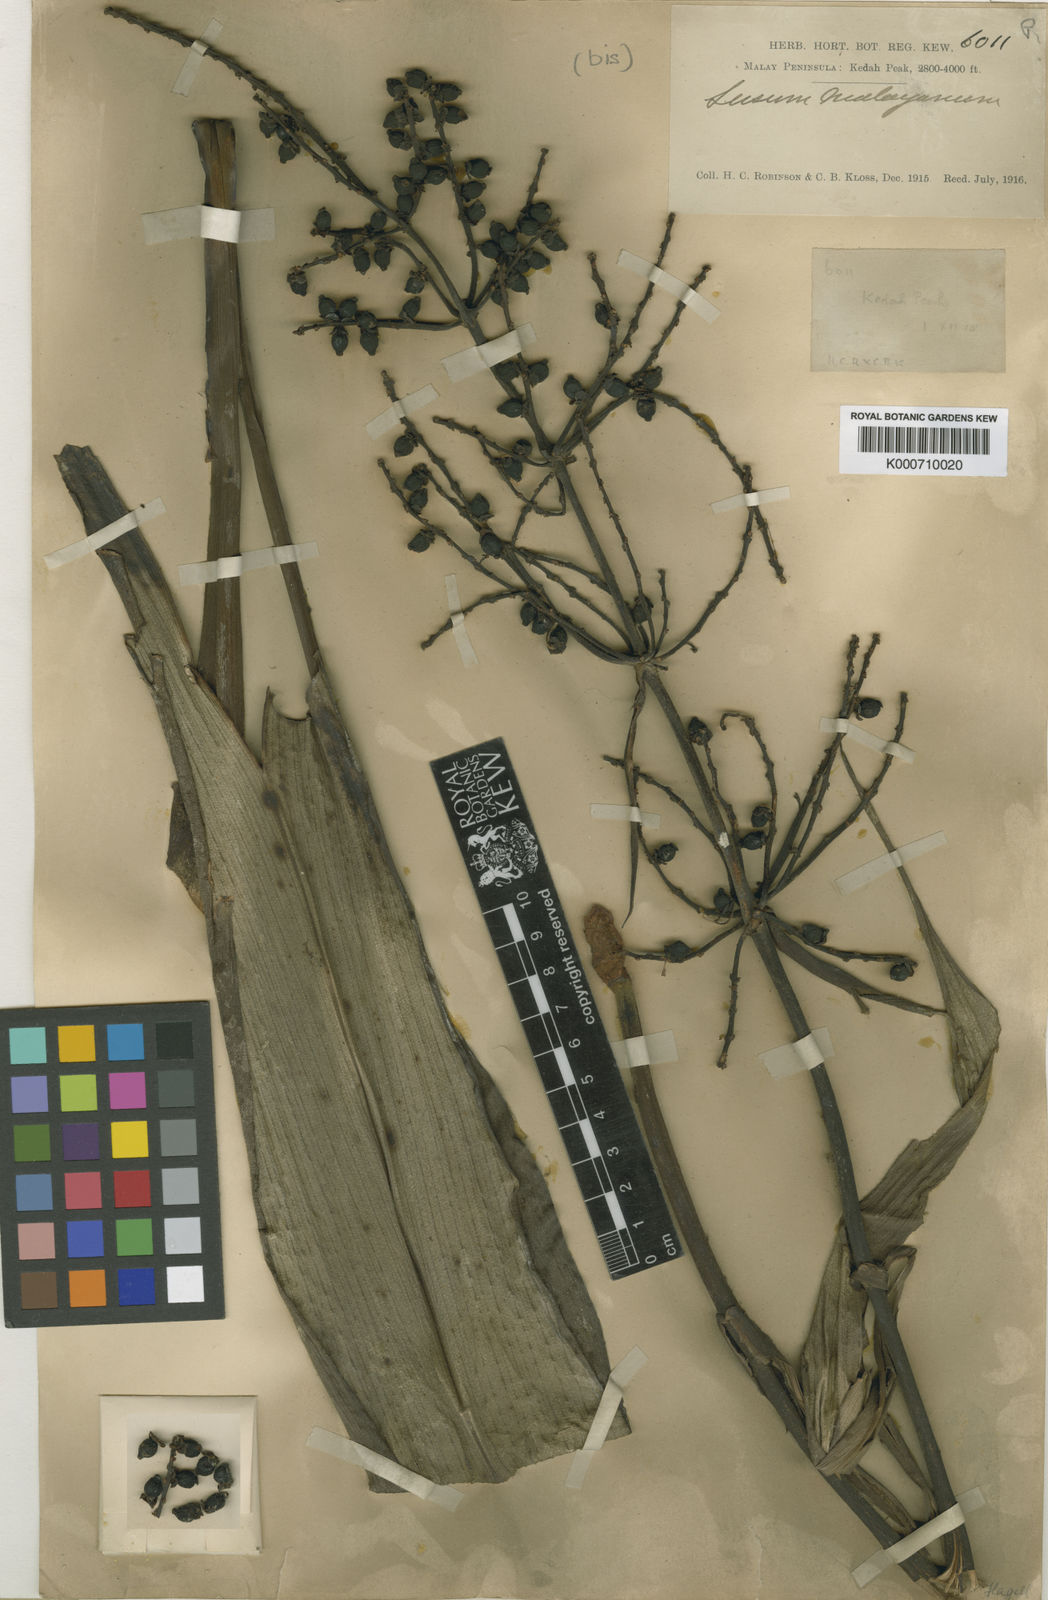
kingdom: Plantae
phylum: Tracheophyta
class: Liliopsida
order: Commelinales
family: Hanguanaceae
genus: Hanguana
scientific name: Hanguana malayana
